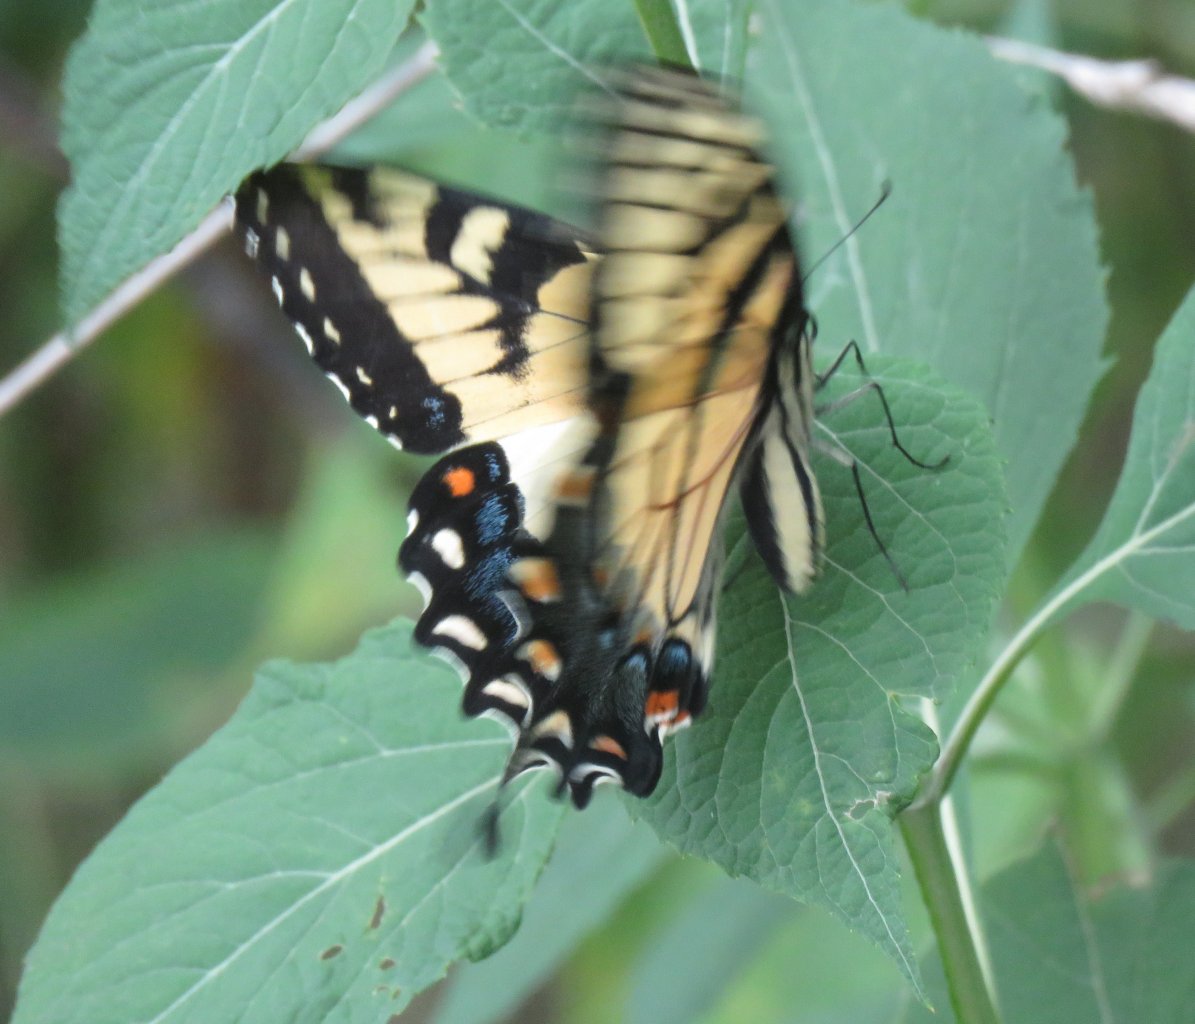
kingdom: Animalia
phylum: Arthropoda
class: Insecta
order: Lepidoptera
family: Papilionidae
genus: Pterourus
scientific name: Pterourus glaucus
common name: Eastern Tiger Swallowtail
